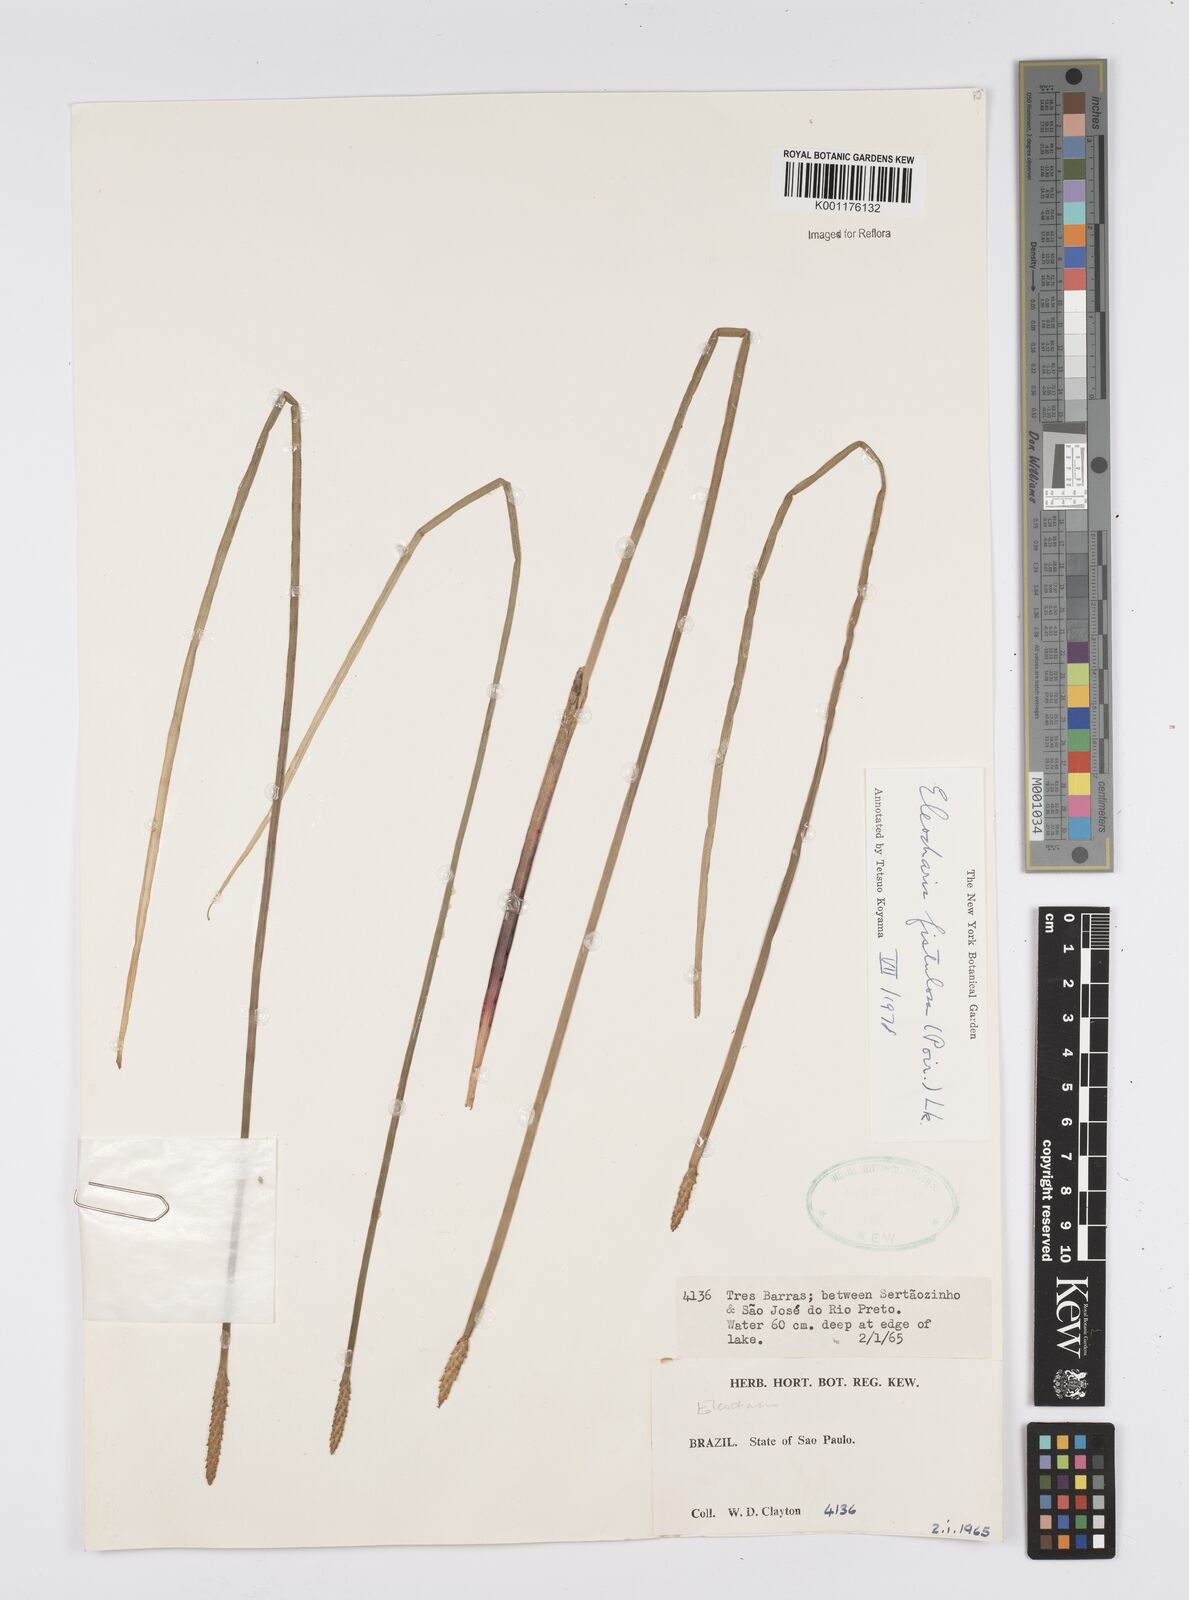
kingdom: Plantae
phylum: Tracheophyta
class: Liliopsida
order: Poales
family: Cyperaceae
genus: Eleocharis
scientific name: Eleocharis acutangula
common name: Acute spikerush
